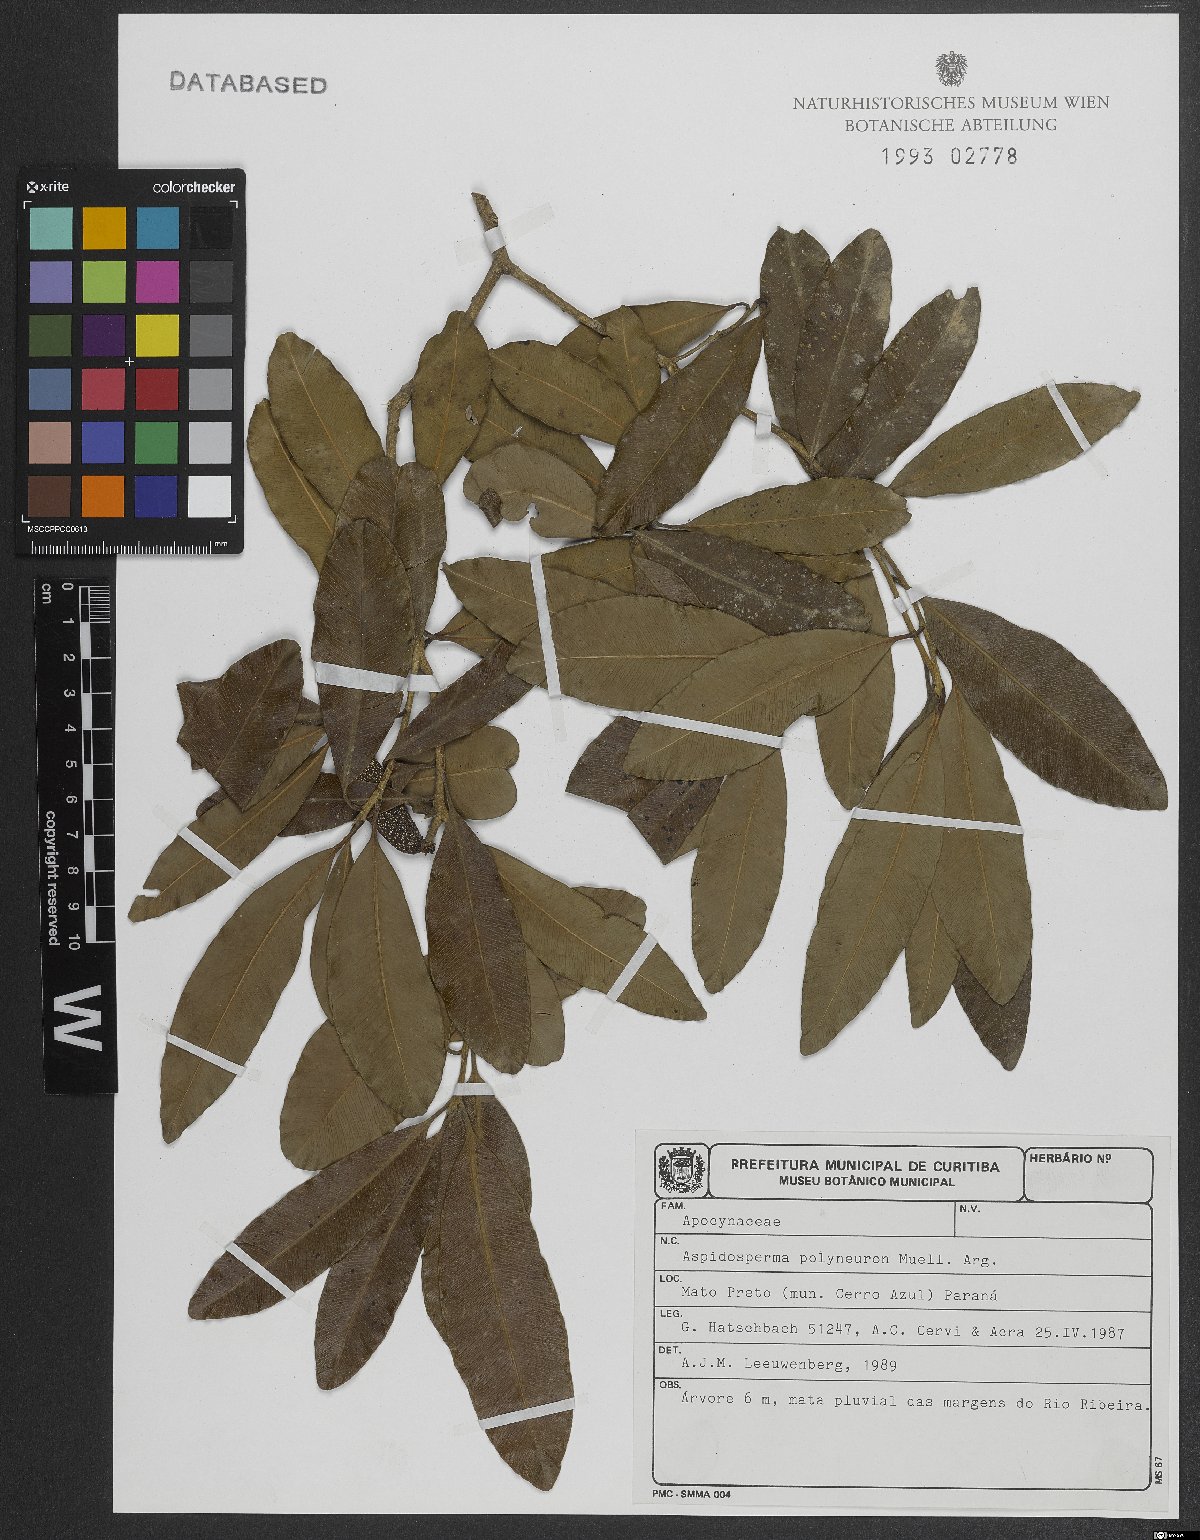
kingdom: Plantae
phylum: Tracheophyta
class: Magnoliopsida
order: Gentianales
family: Apocynaceae
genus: Aspidosperma
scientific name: Aspidosperma polyneuron
